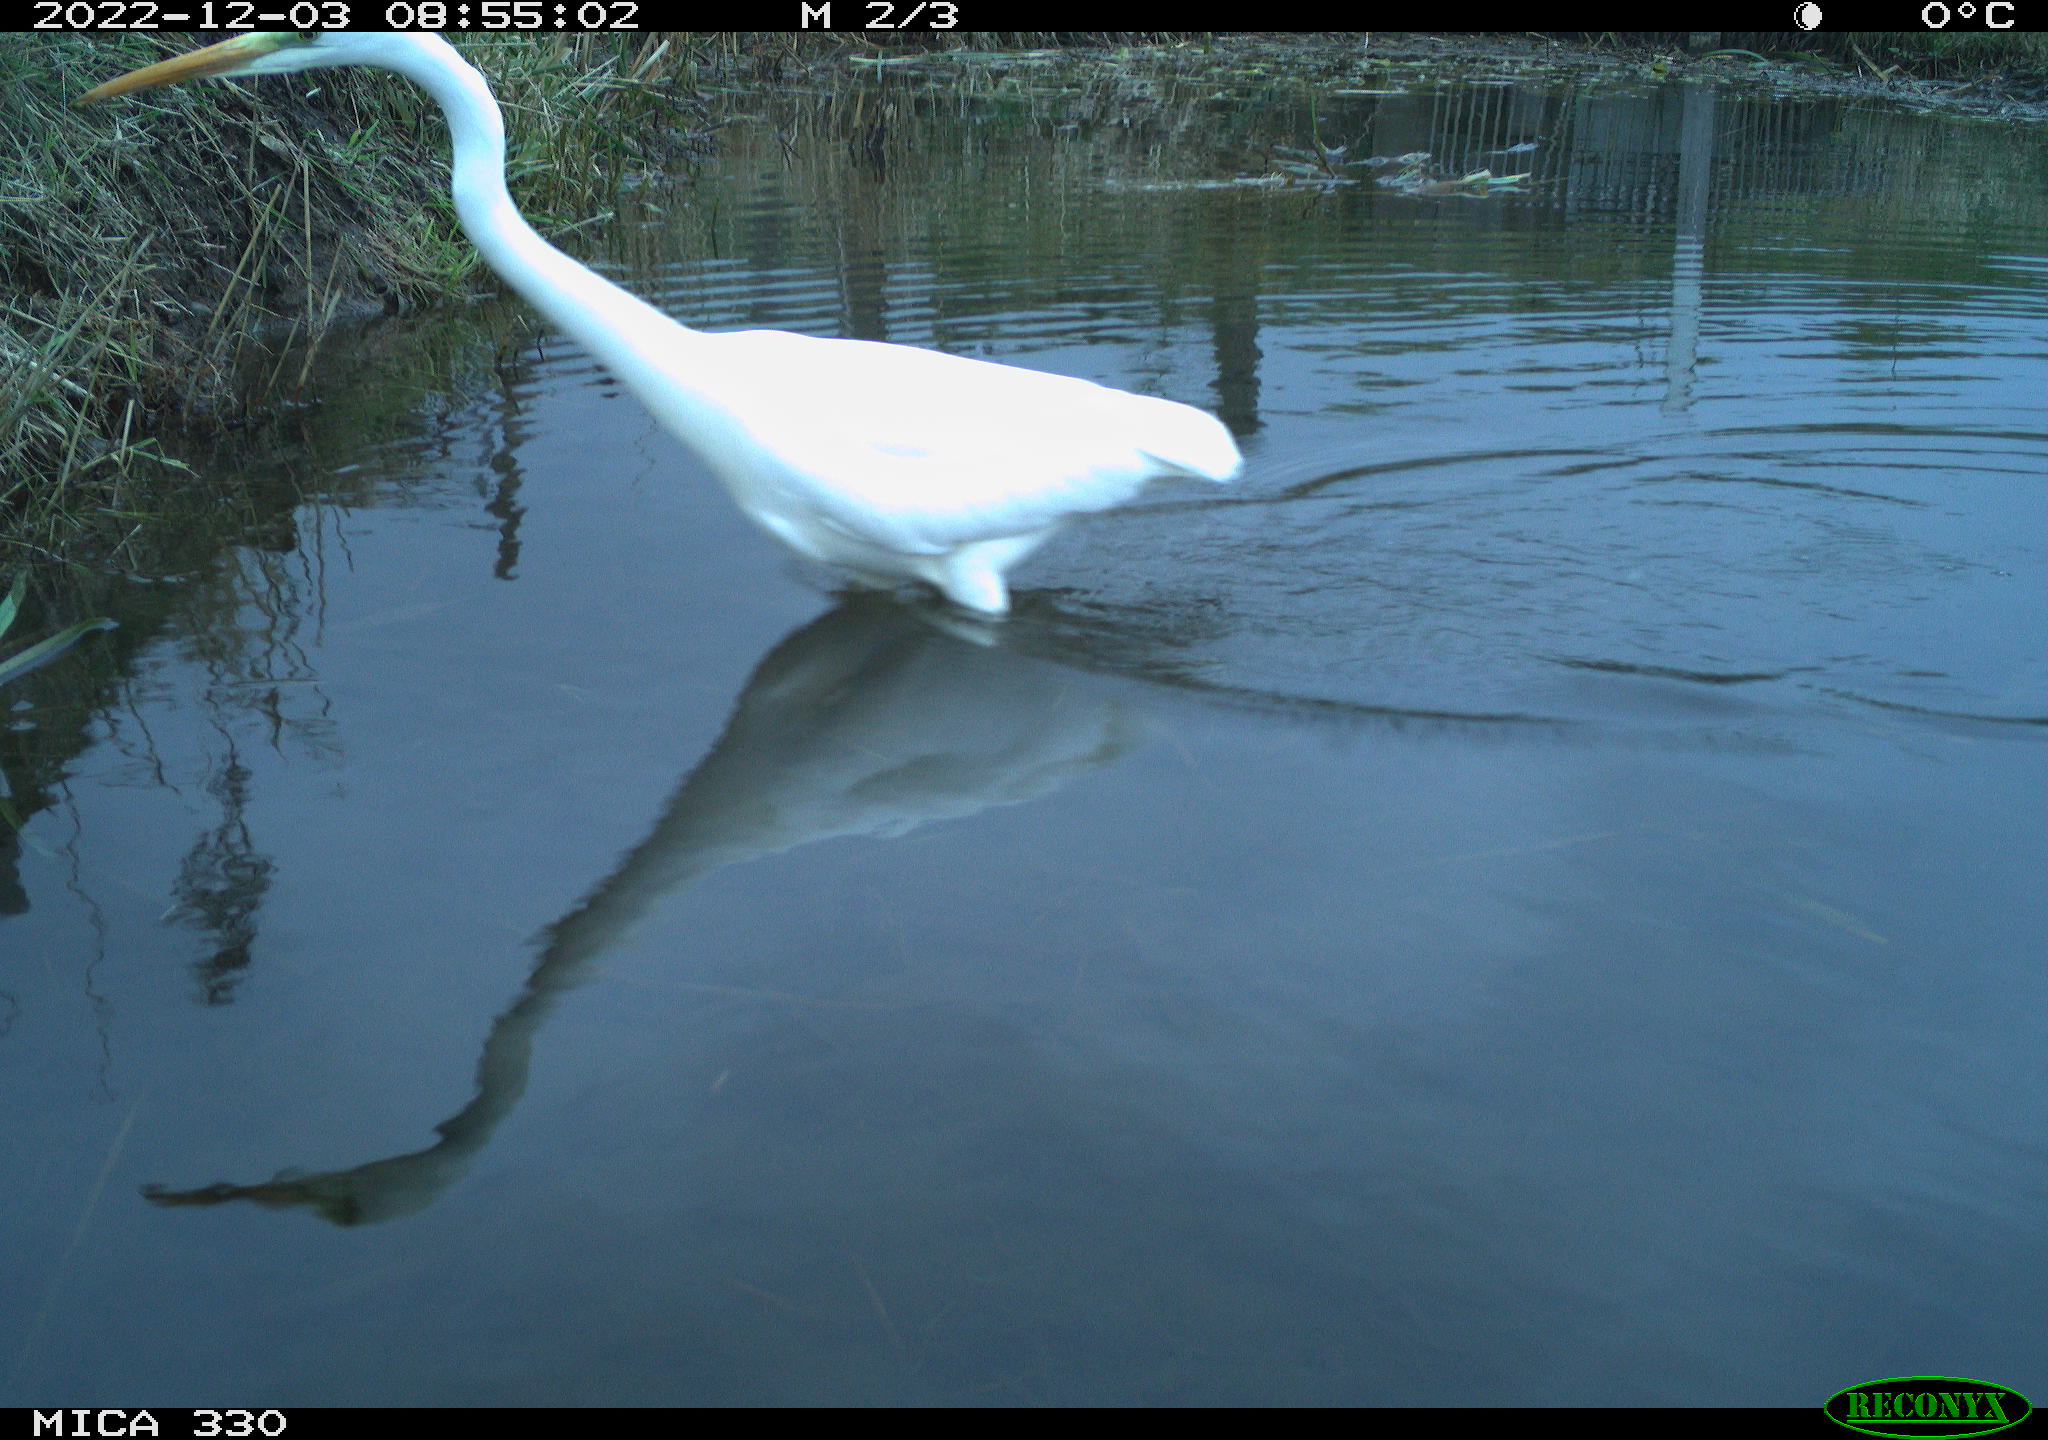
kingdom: Animalia
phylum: Chordata
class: Aves
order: Pelecaniformes
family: Ardeidae
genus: Ardea
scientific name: Ardea alba
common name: Great egret
